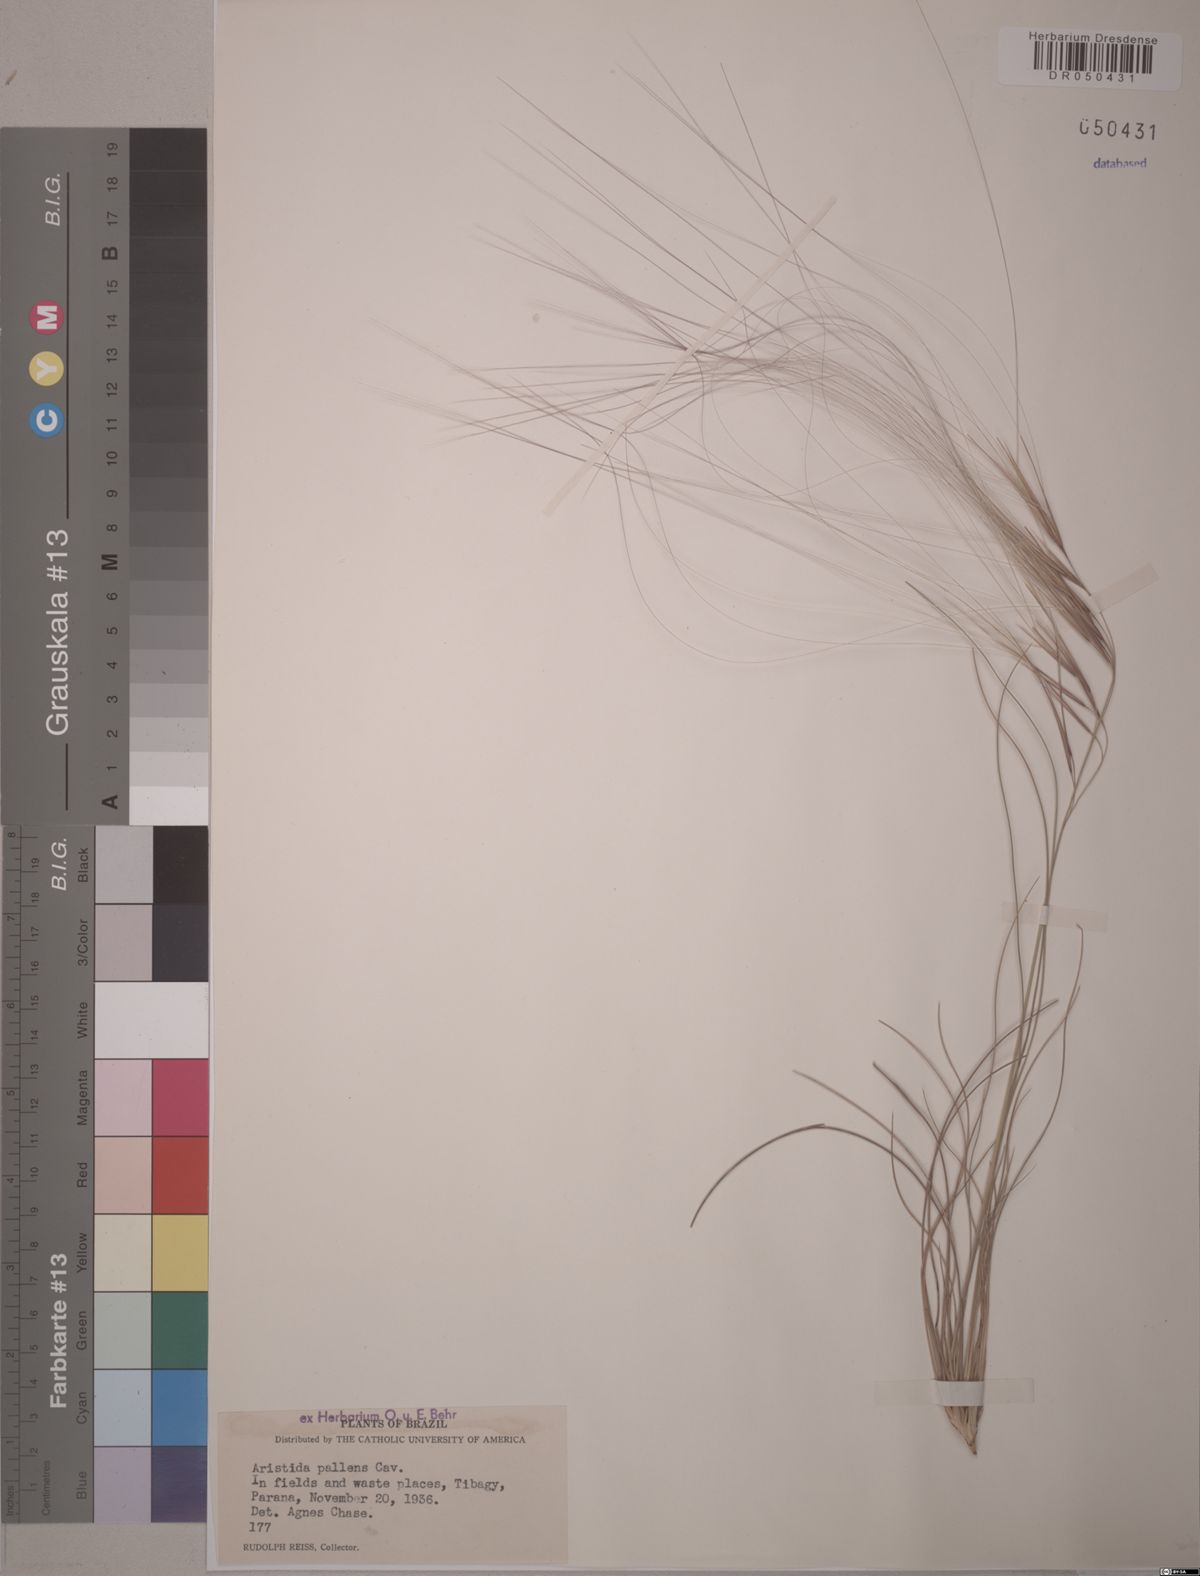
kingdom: Plantae
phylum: Tracheophyta
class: Liliopsida
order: Poales
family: Poaceae
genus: Aristida
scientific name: Aristida pallens
